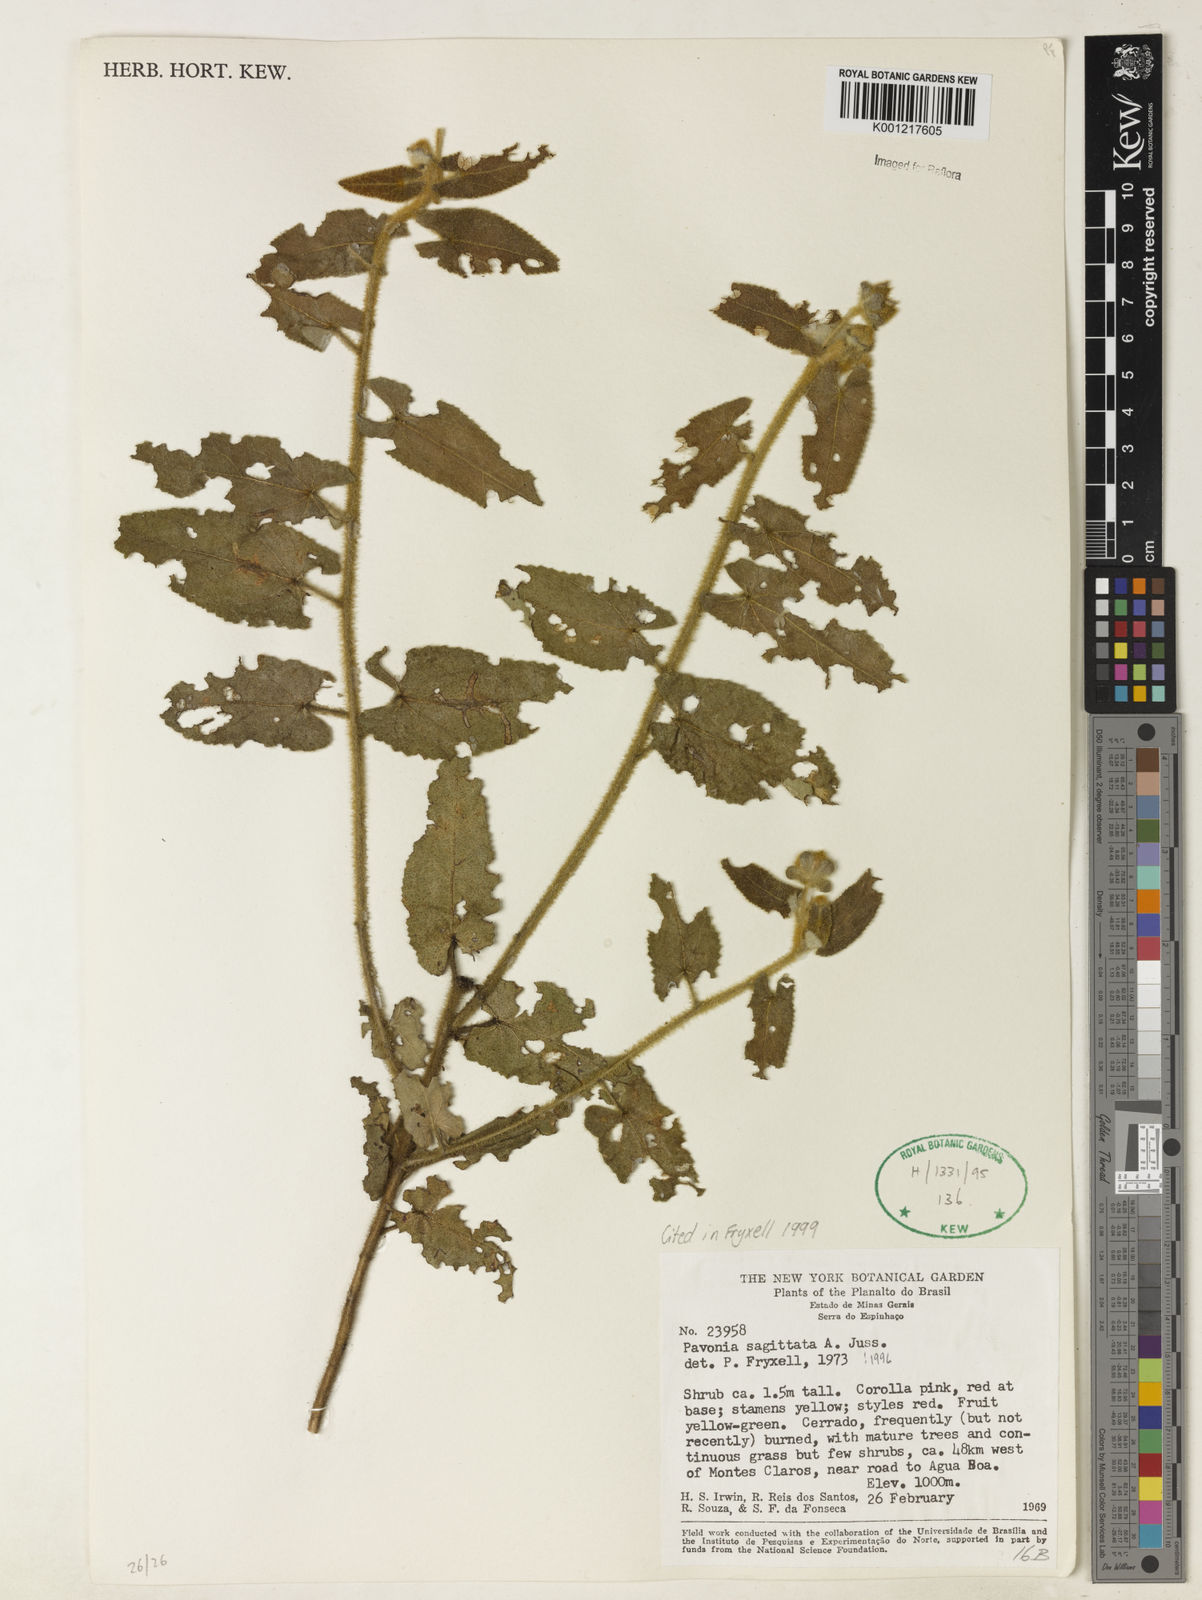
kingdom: Plantae
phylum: Tracheophyta
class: Magnoliopsida
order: Malvales
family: Malvaceae
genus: Pavonia
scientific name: Pavonia
